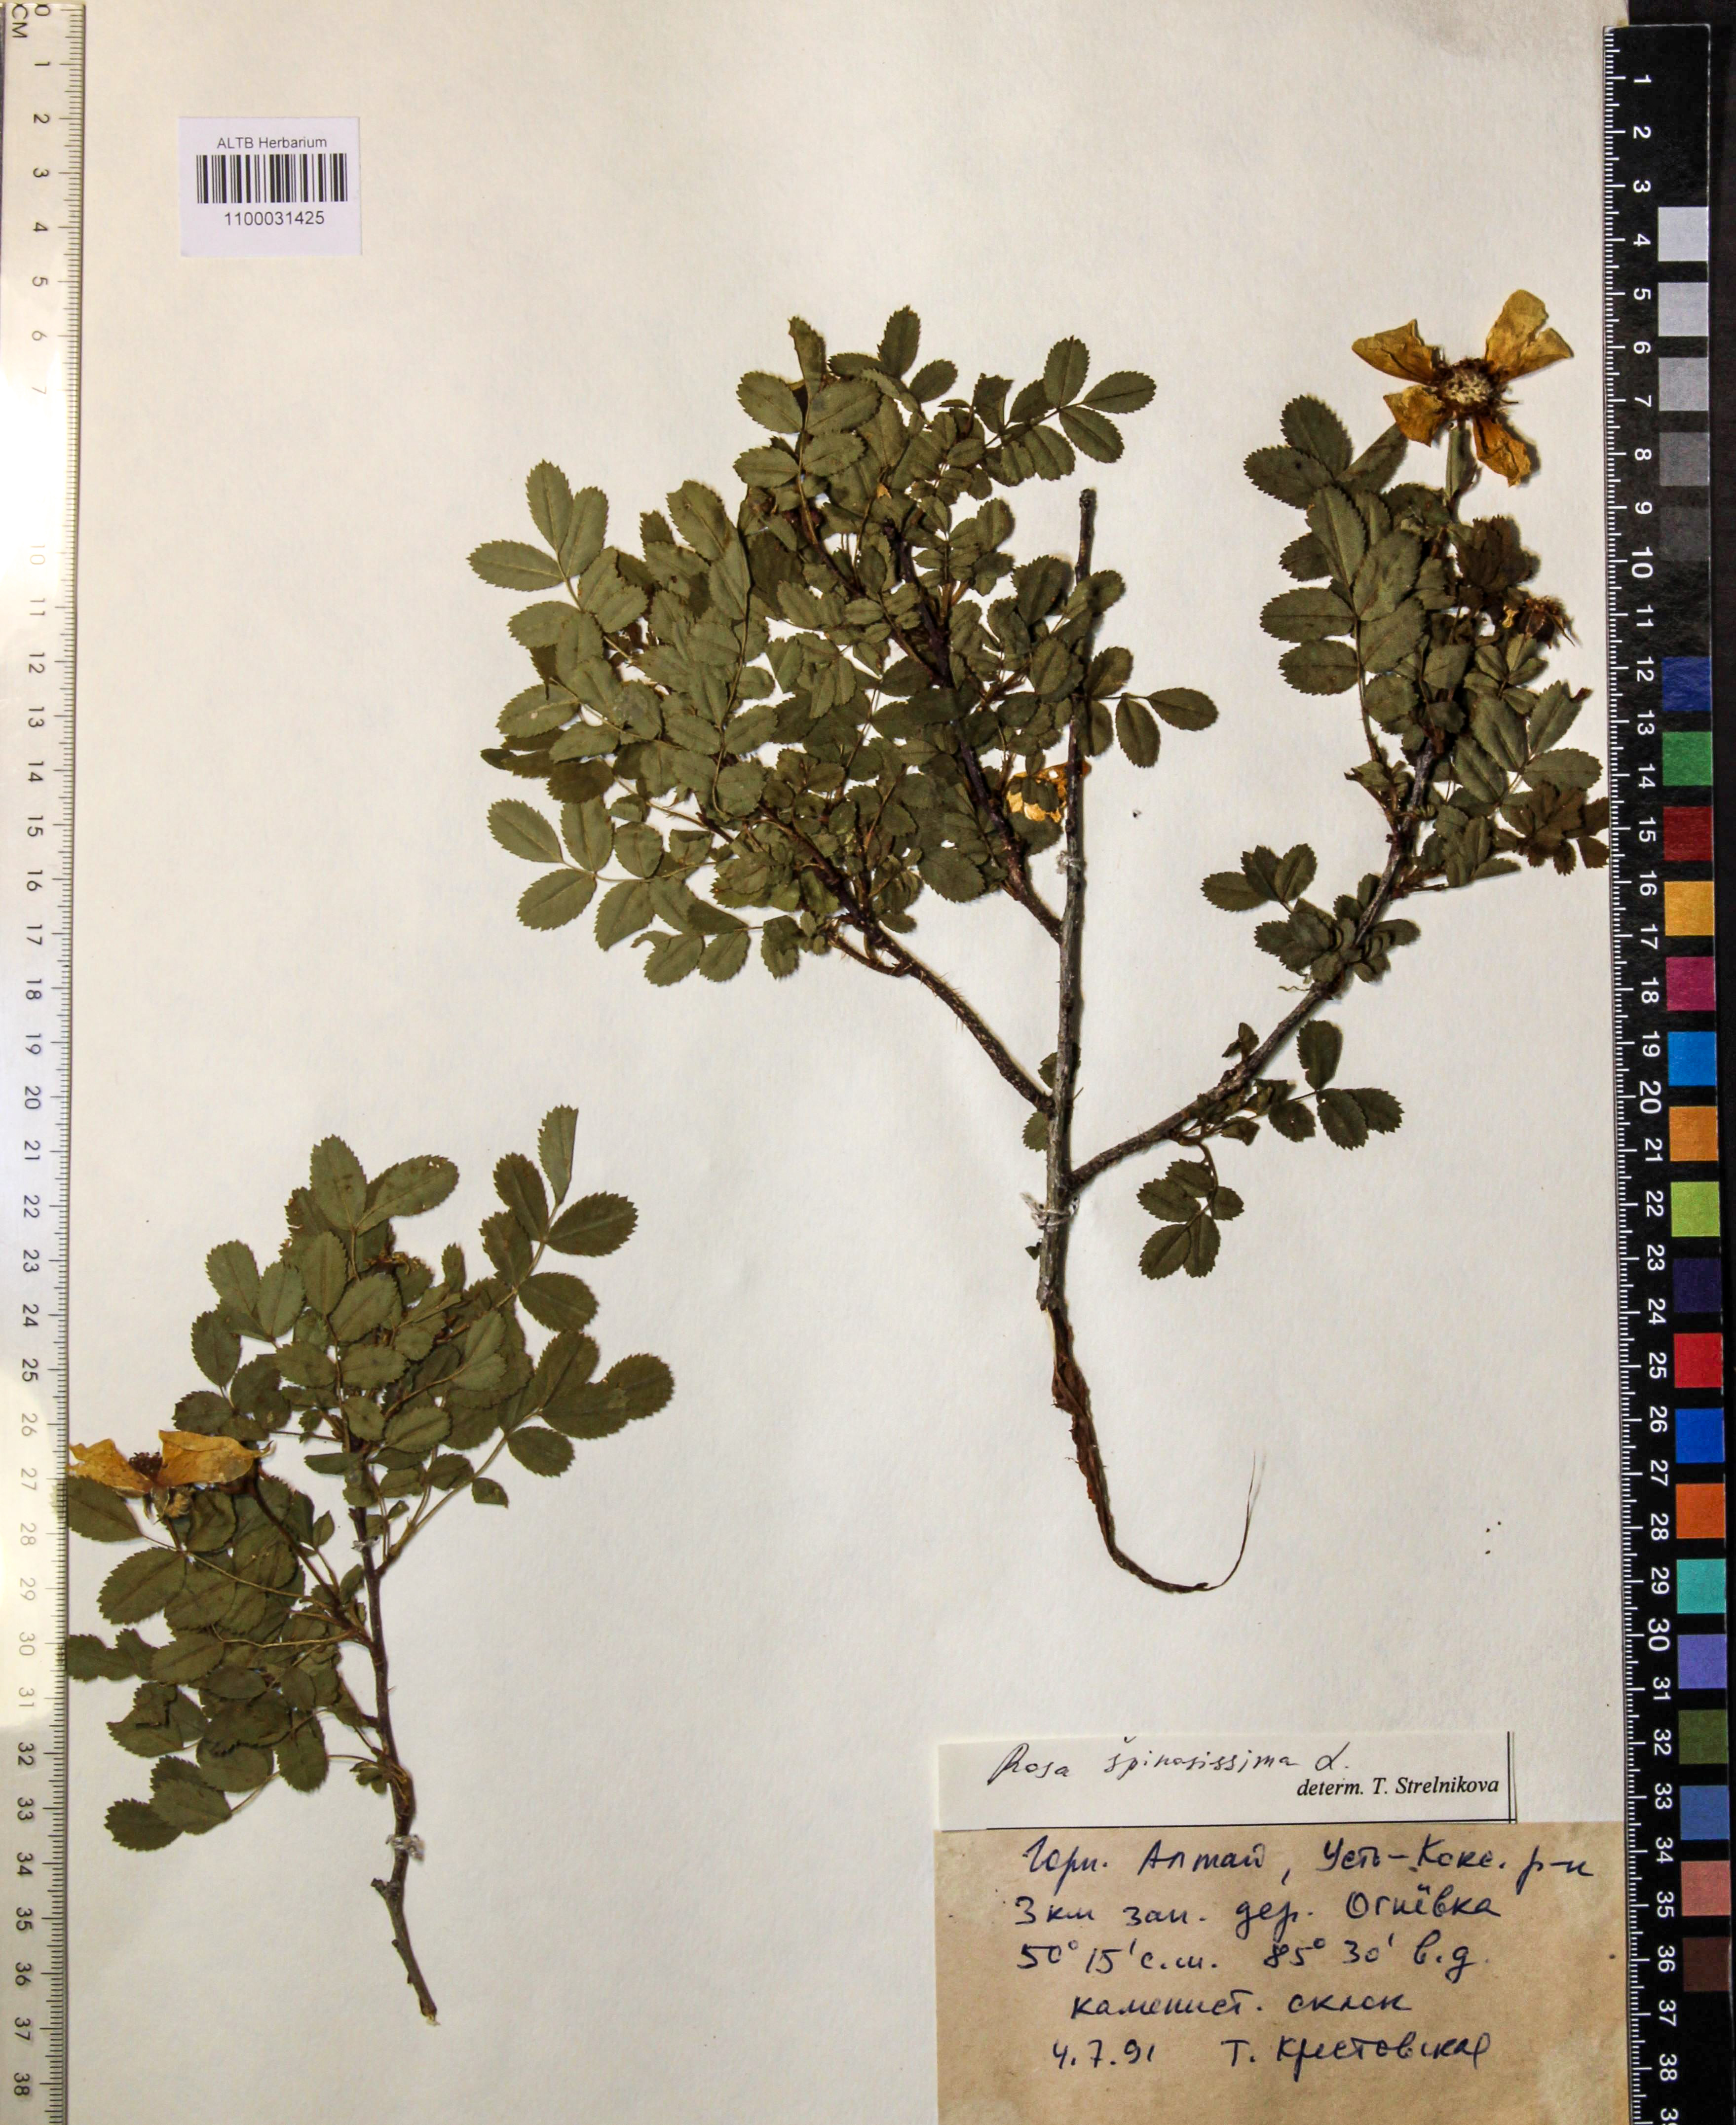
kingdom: Plantae
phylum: Tracheophyta
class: Magnoliopsida
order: Rosales
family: Rosaceae
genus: Rosa
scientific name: Rosa spinosissima
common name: Burnet rose
